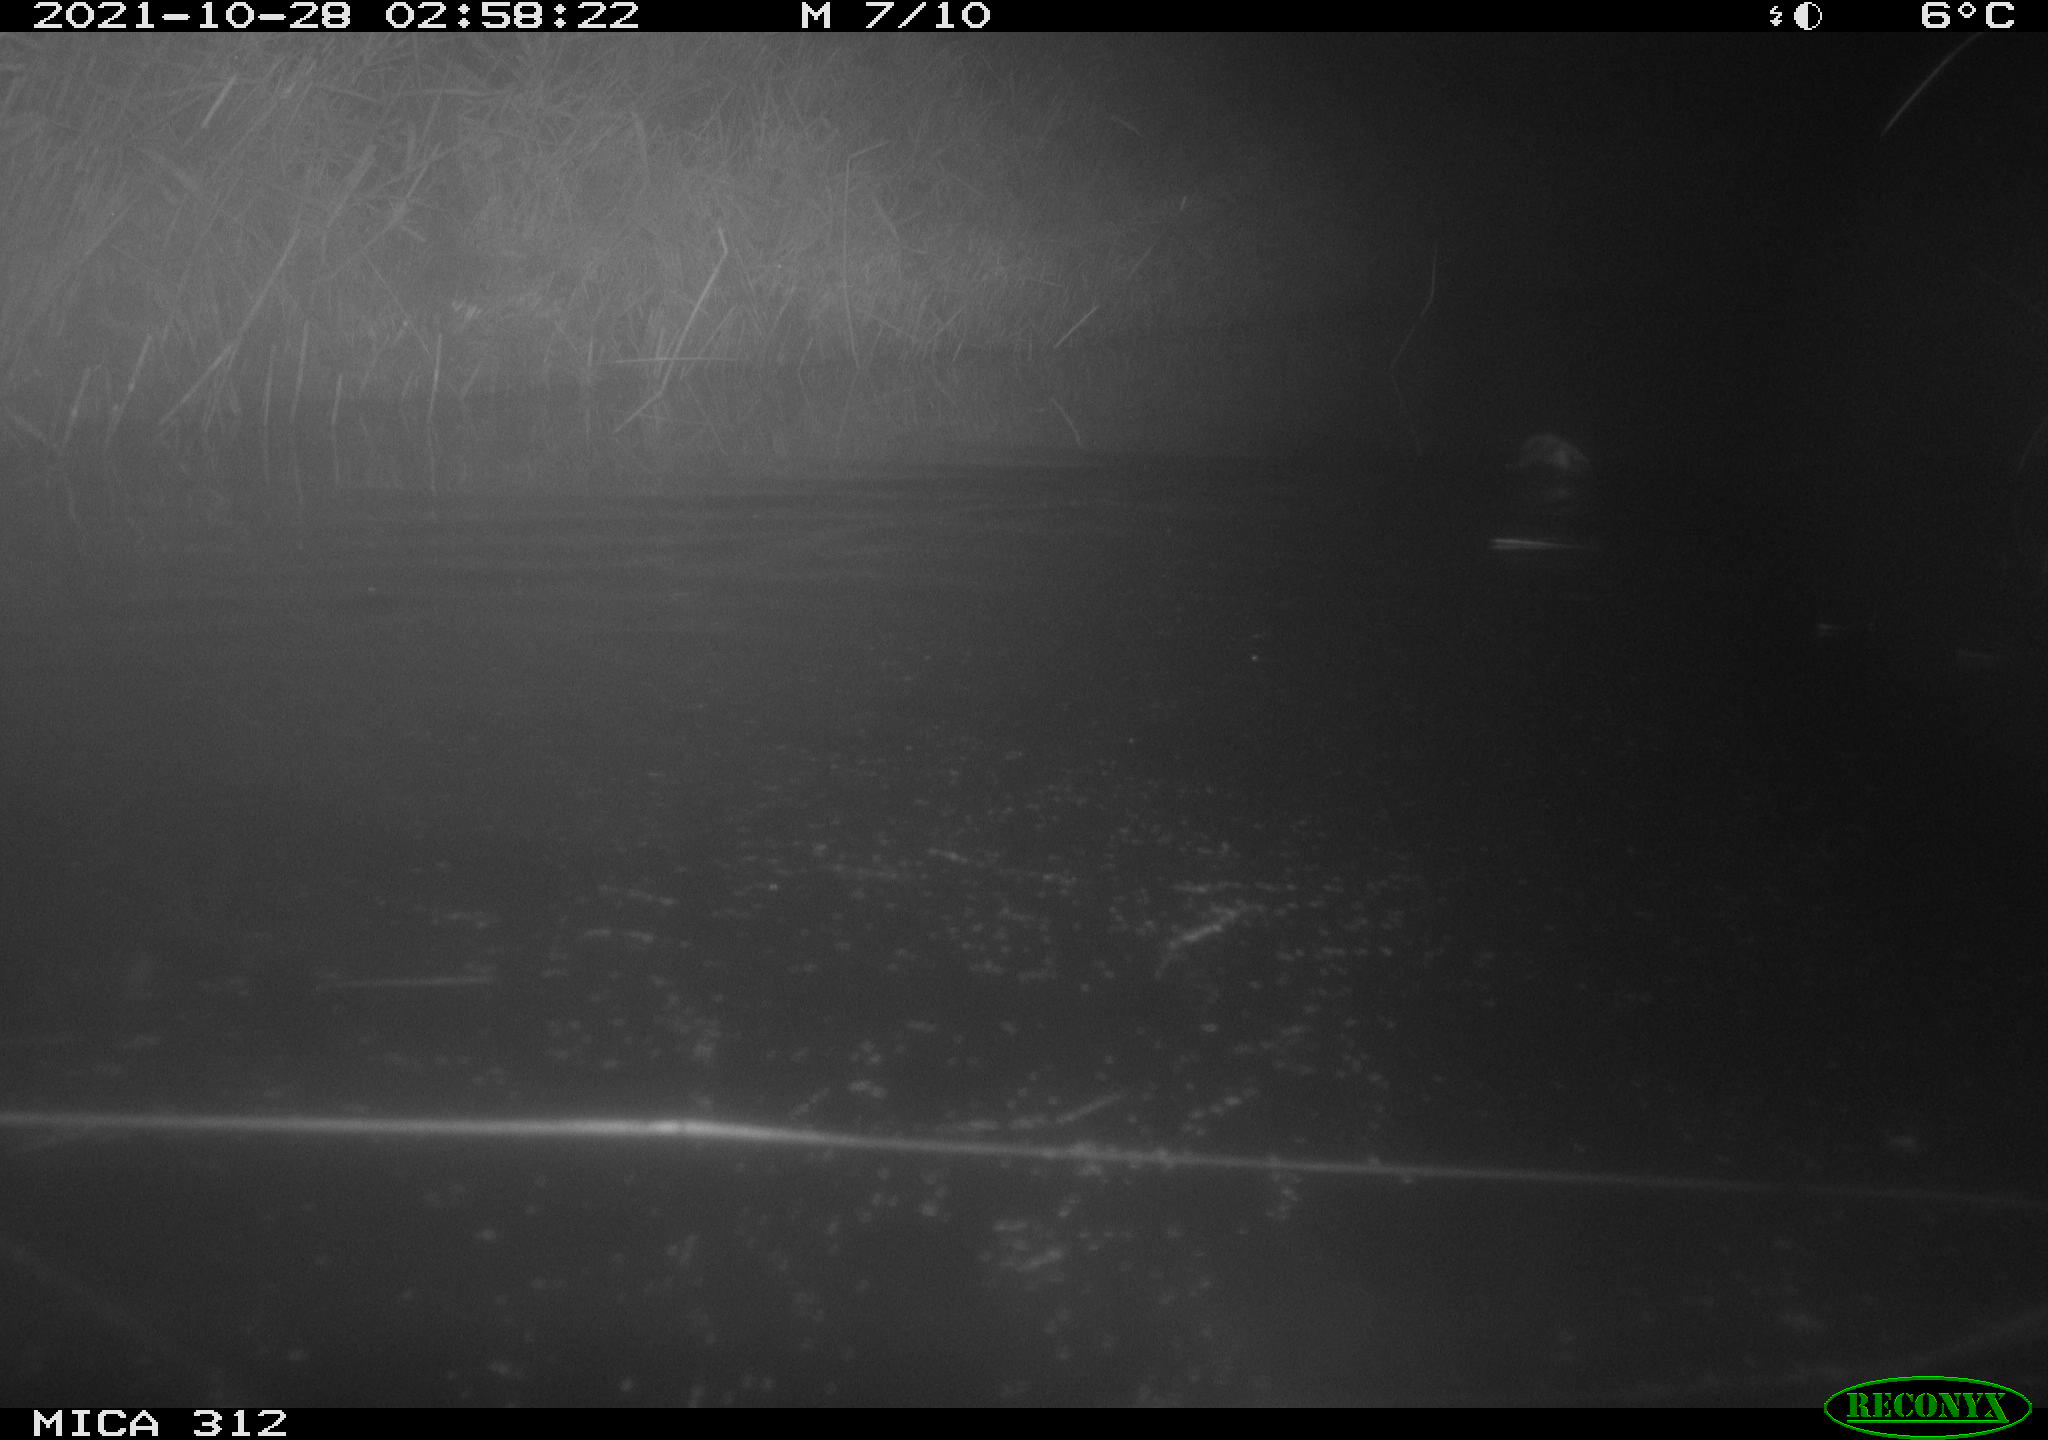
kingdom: Animalia
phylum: Chordata
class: Mammalia
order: Rodentia
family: Cricetidae
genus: Ondatra
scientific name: Ondatra zibethicus
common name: Muskrat
